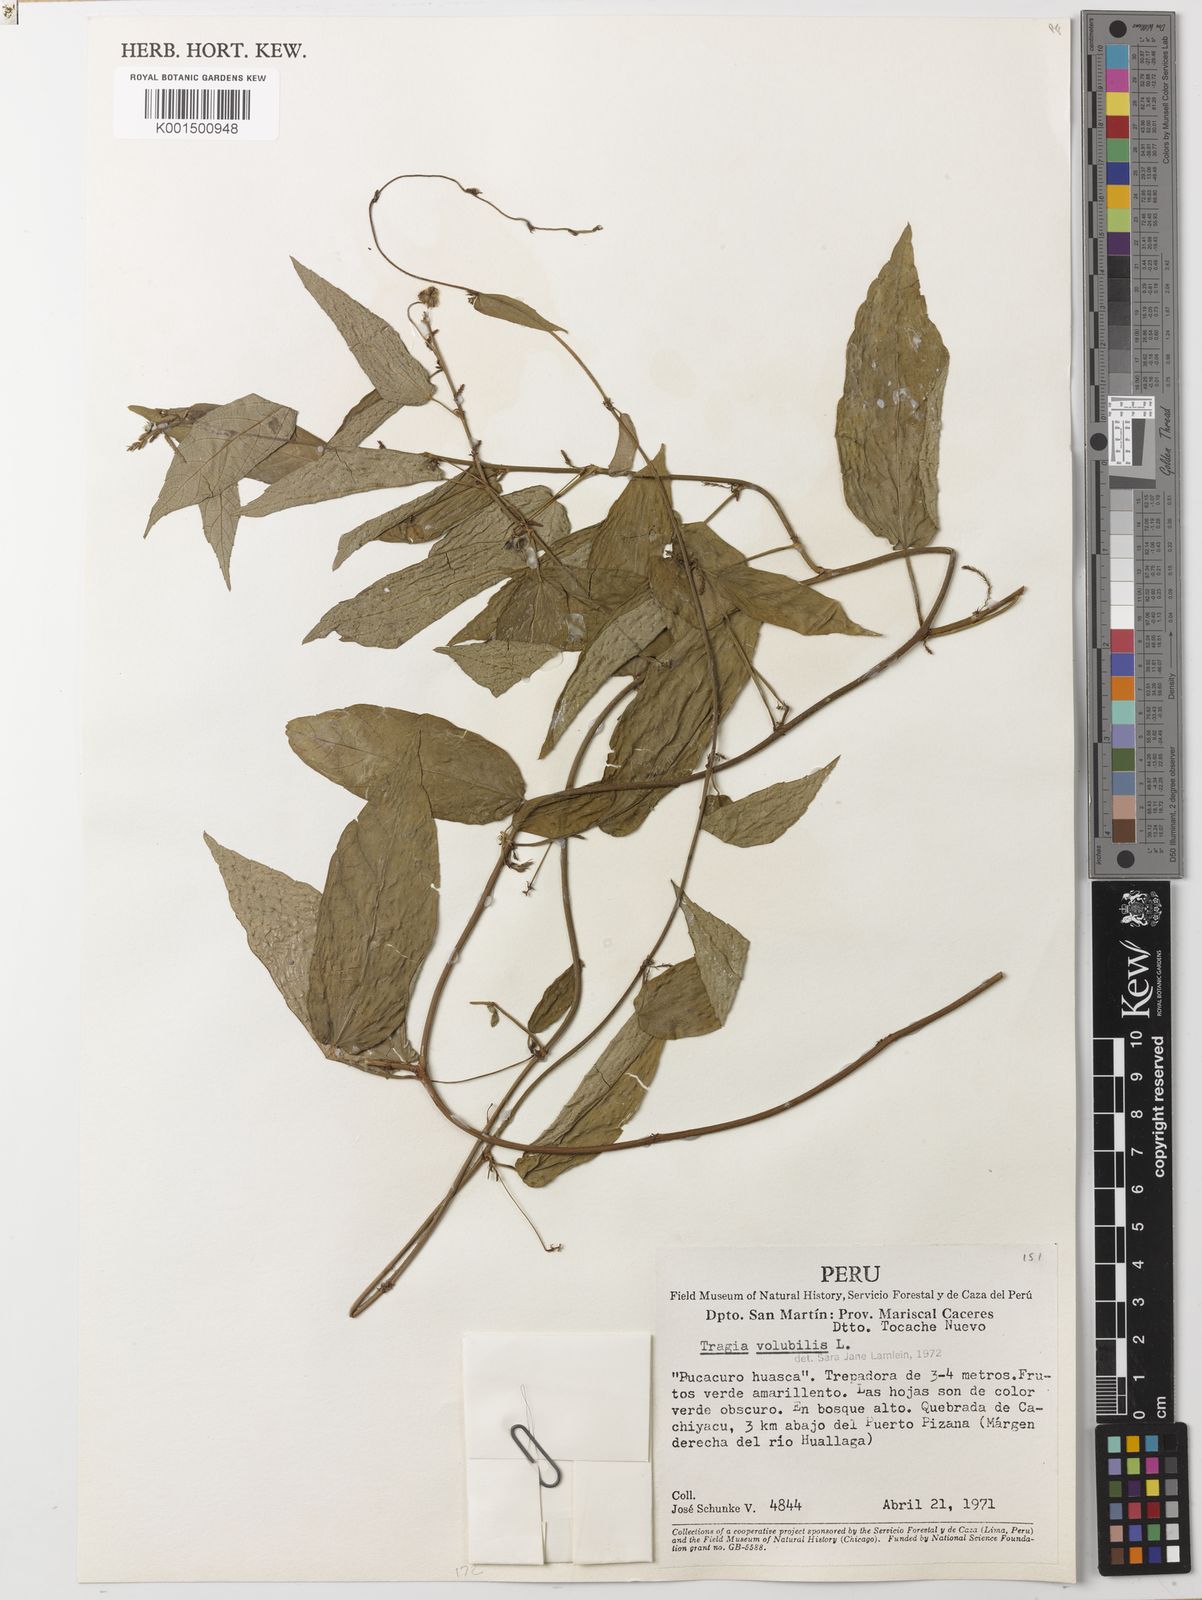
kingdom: Plantae
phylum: Tracheophyta
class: Magnoliopsida
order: Malpighiales
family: Euphorbiaceae
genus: Tragia
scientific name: Tragia volubilis
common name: Twining cow-itch
